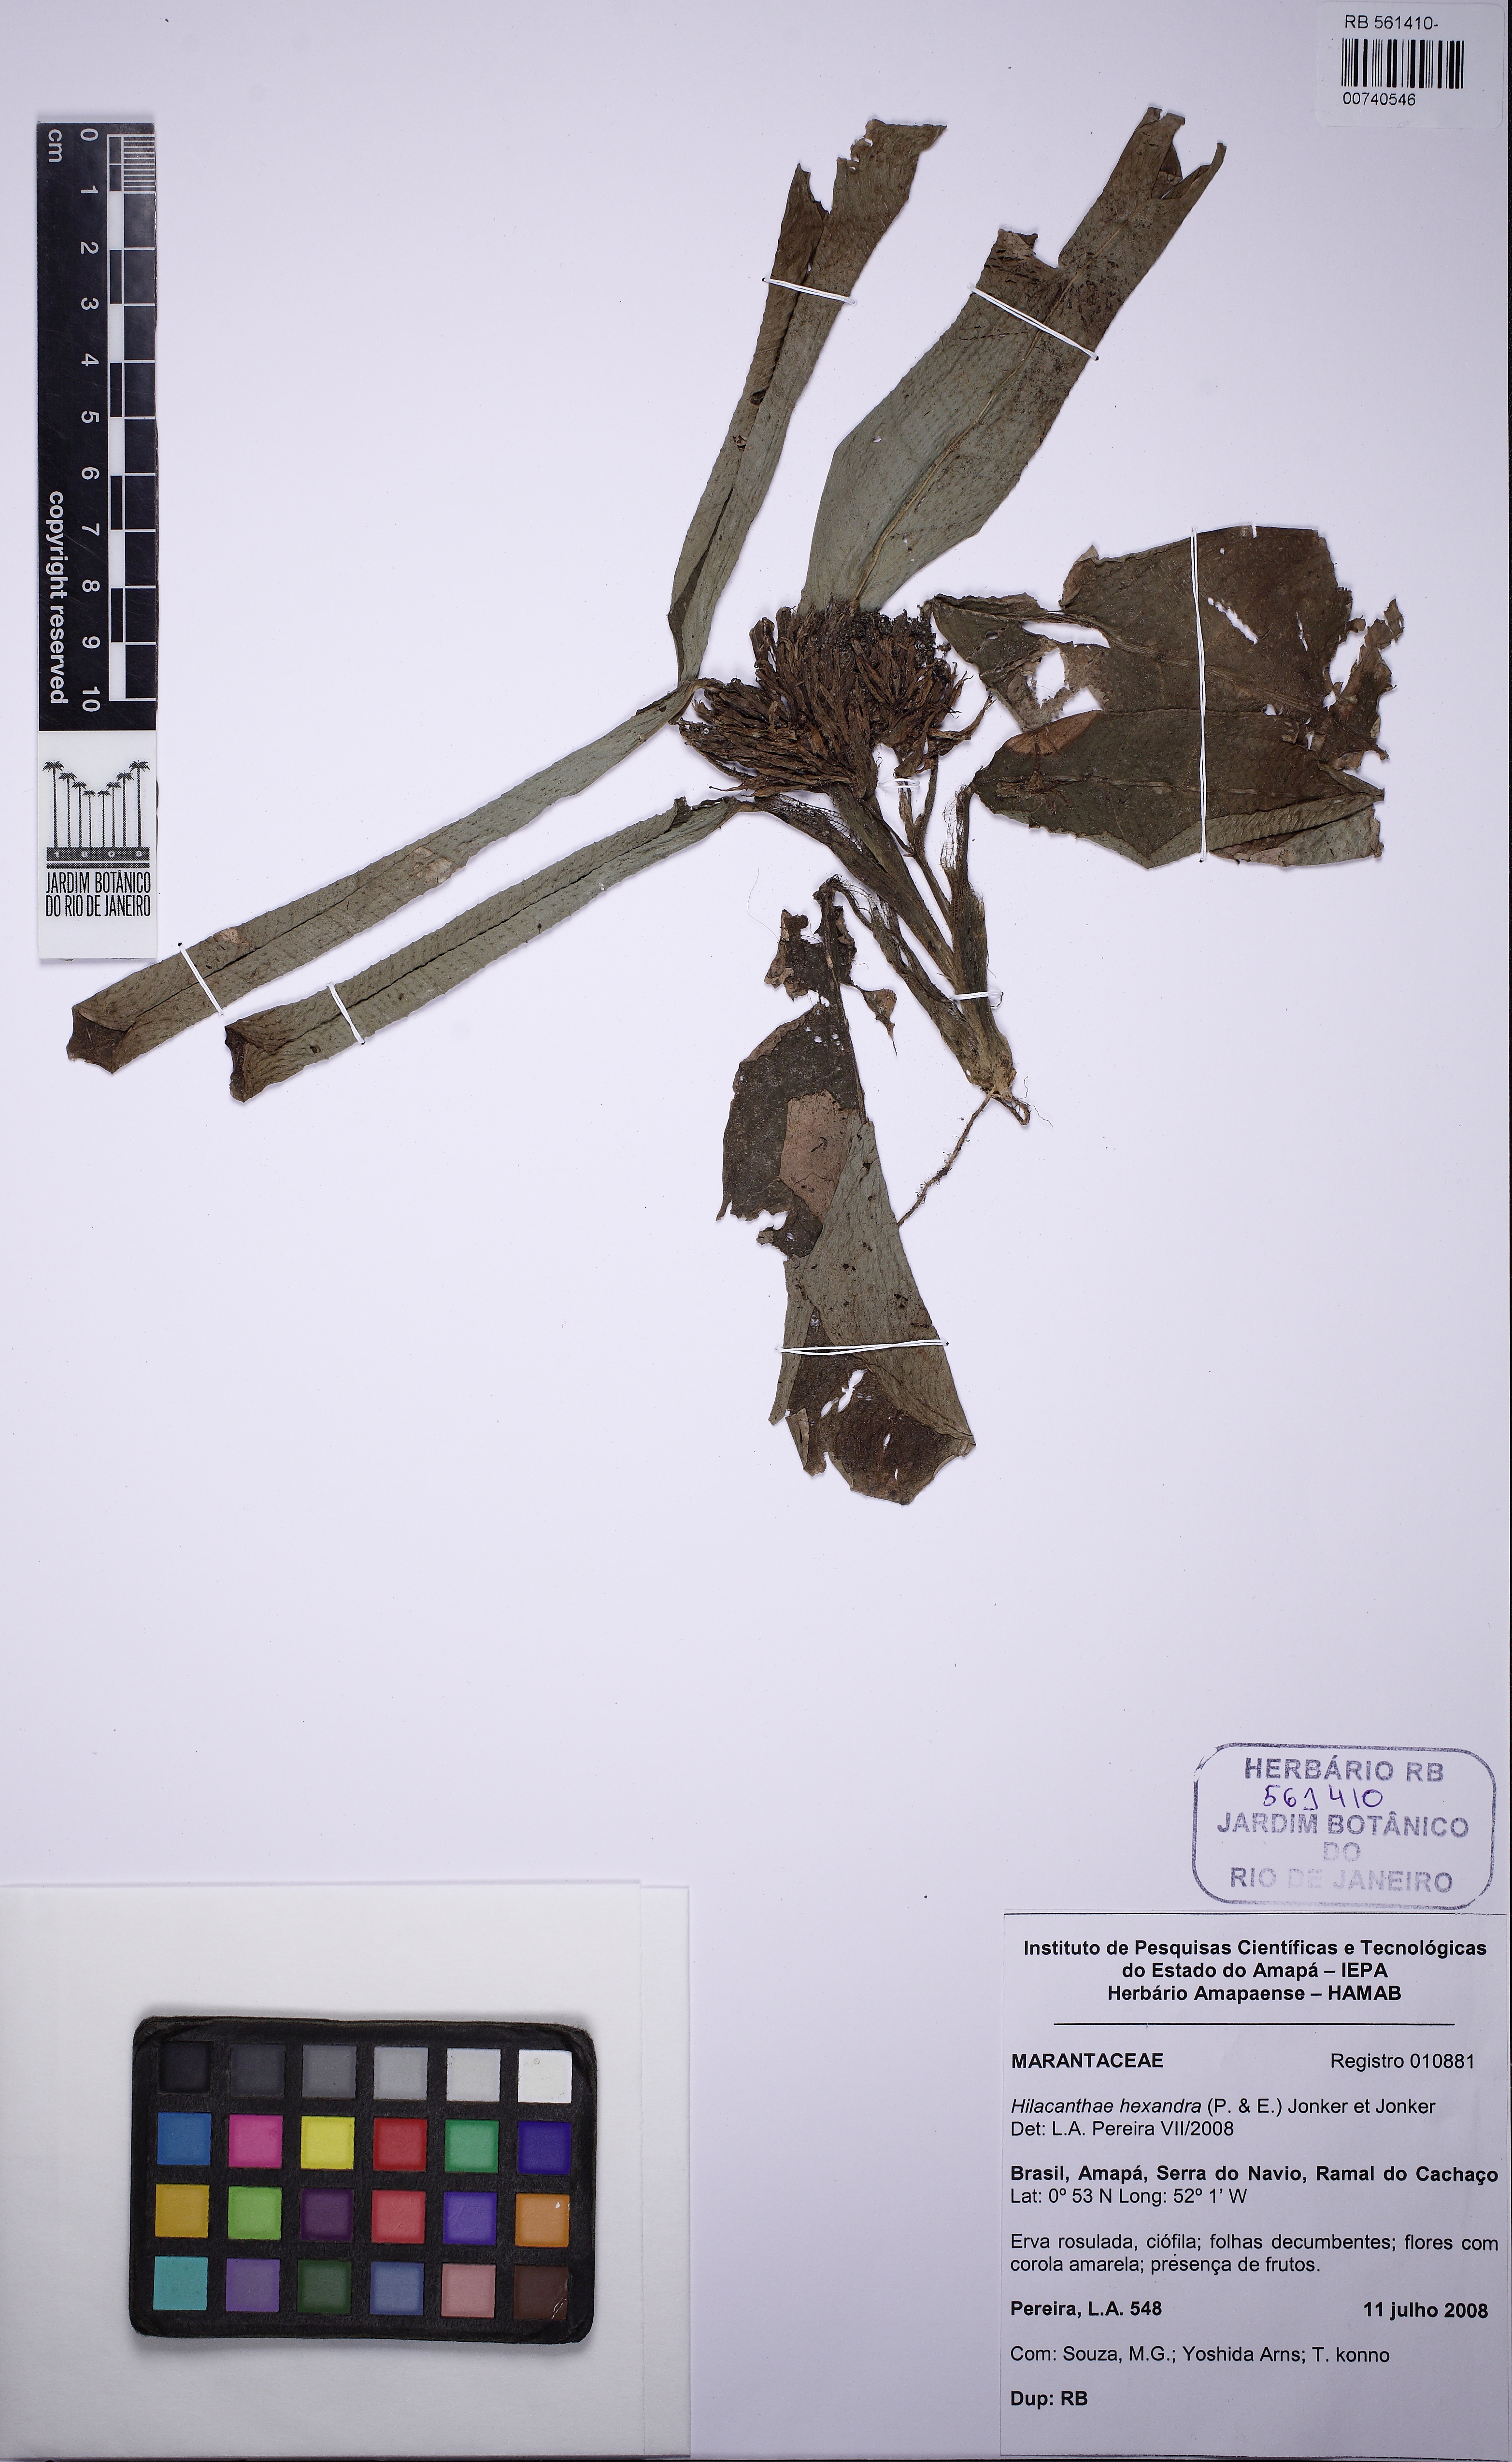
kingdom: Plantae
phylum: Tracheophyta
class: Liliopsida
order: Zingiberales
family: Marantaceae
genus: Hylaeanthe
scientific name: Hylaeanthe hexantha
